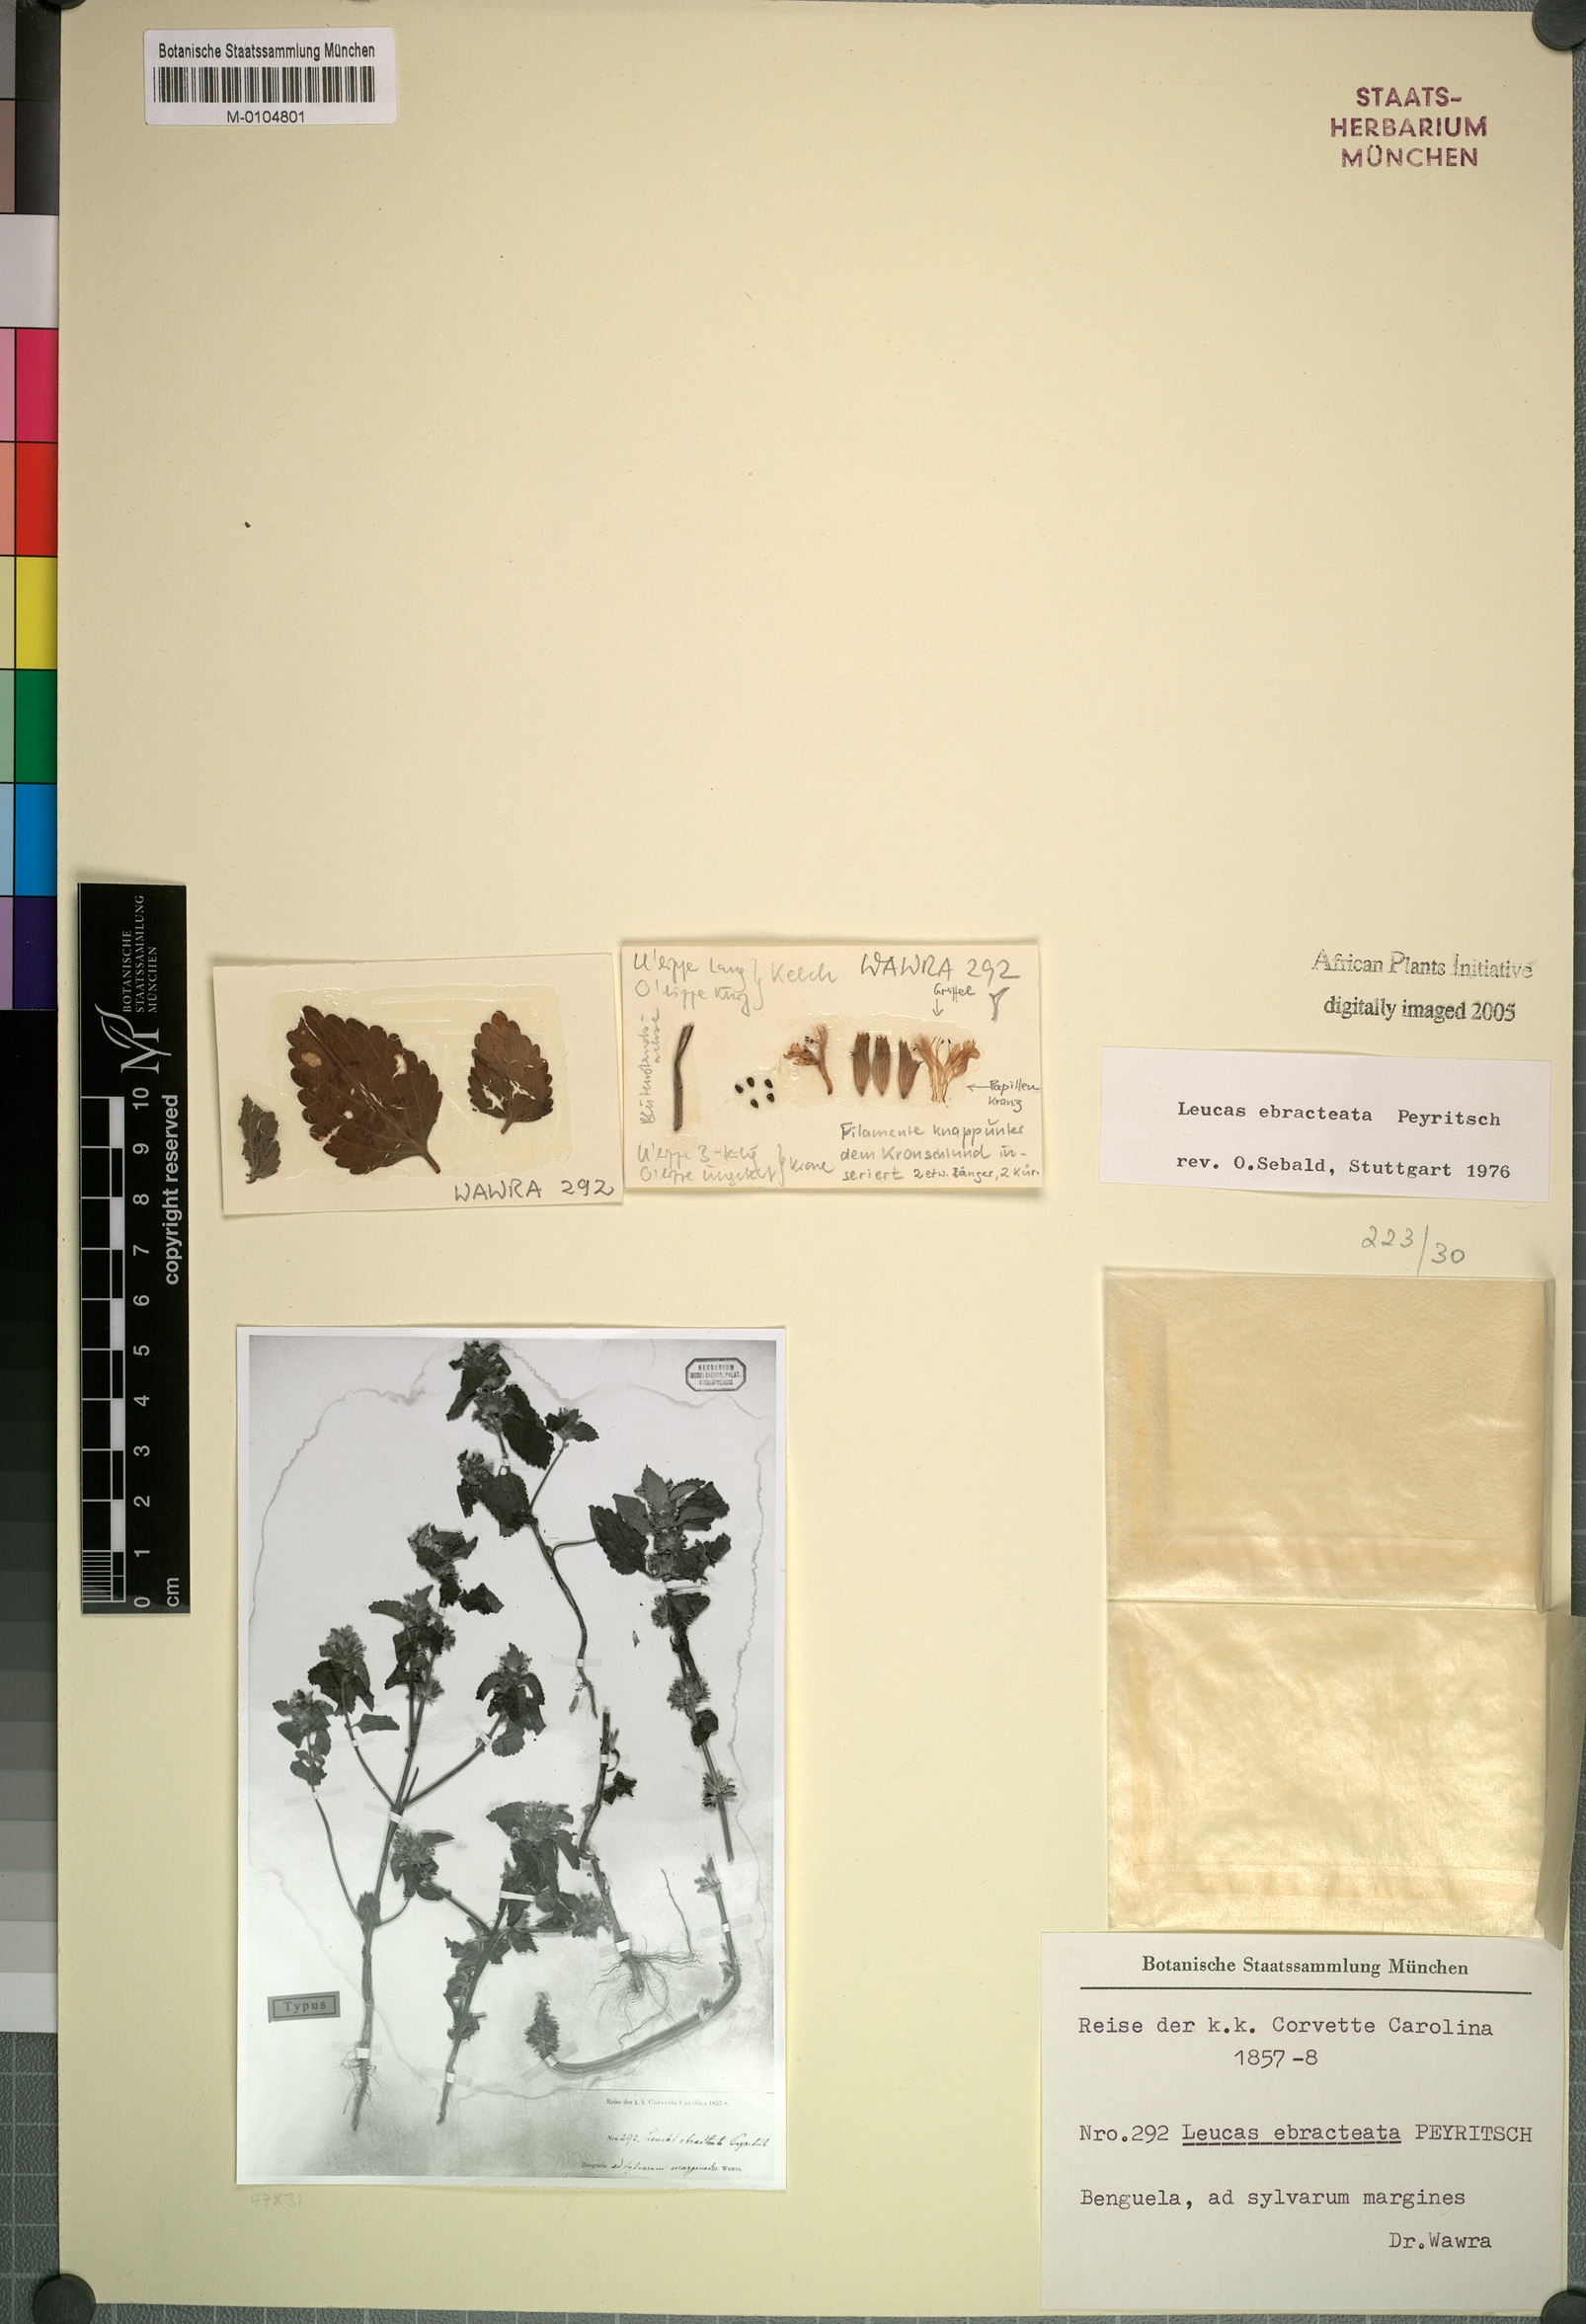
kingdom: Plantae
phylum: Tracheophyta
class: Magnoliopsida
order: Lamiales
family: Lamiaceae
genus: Leucas
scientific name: Leucas ebracteata
